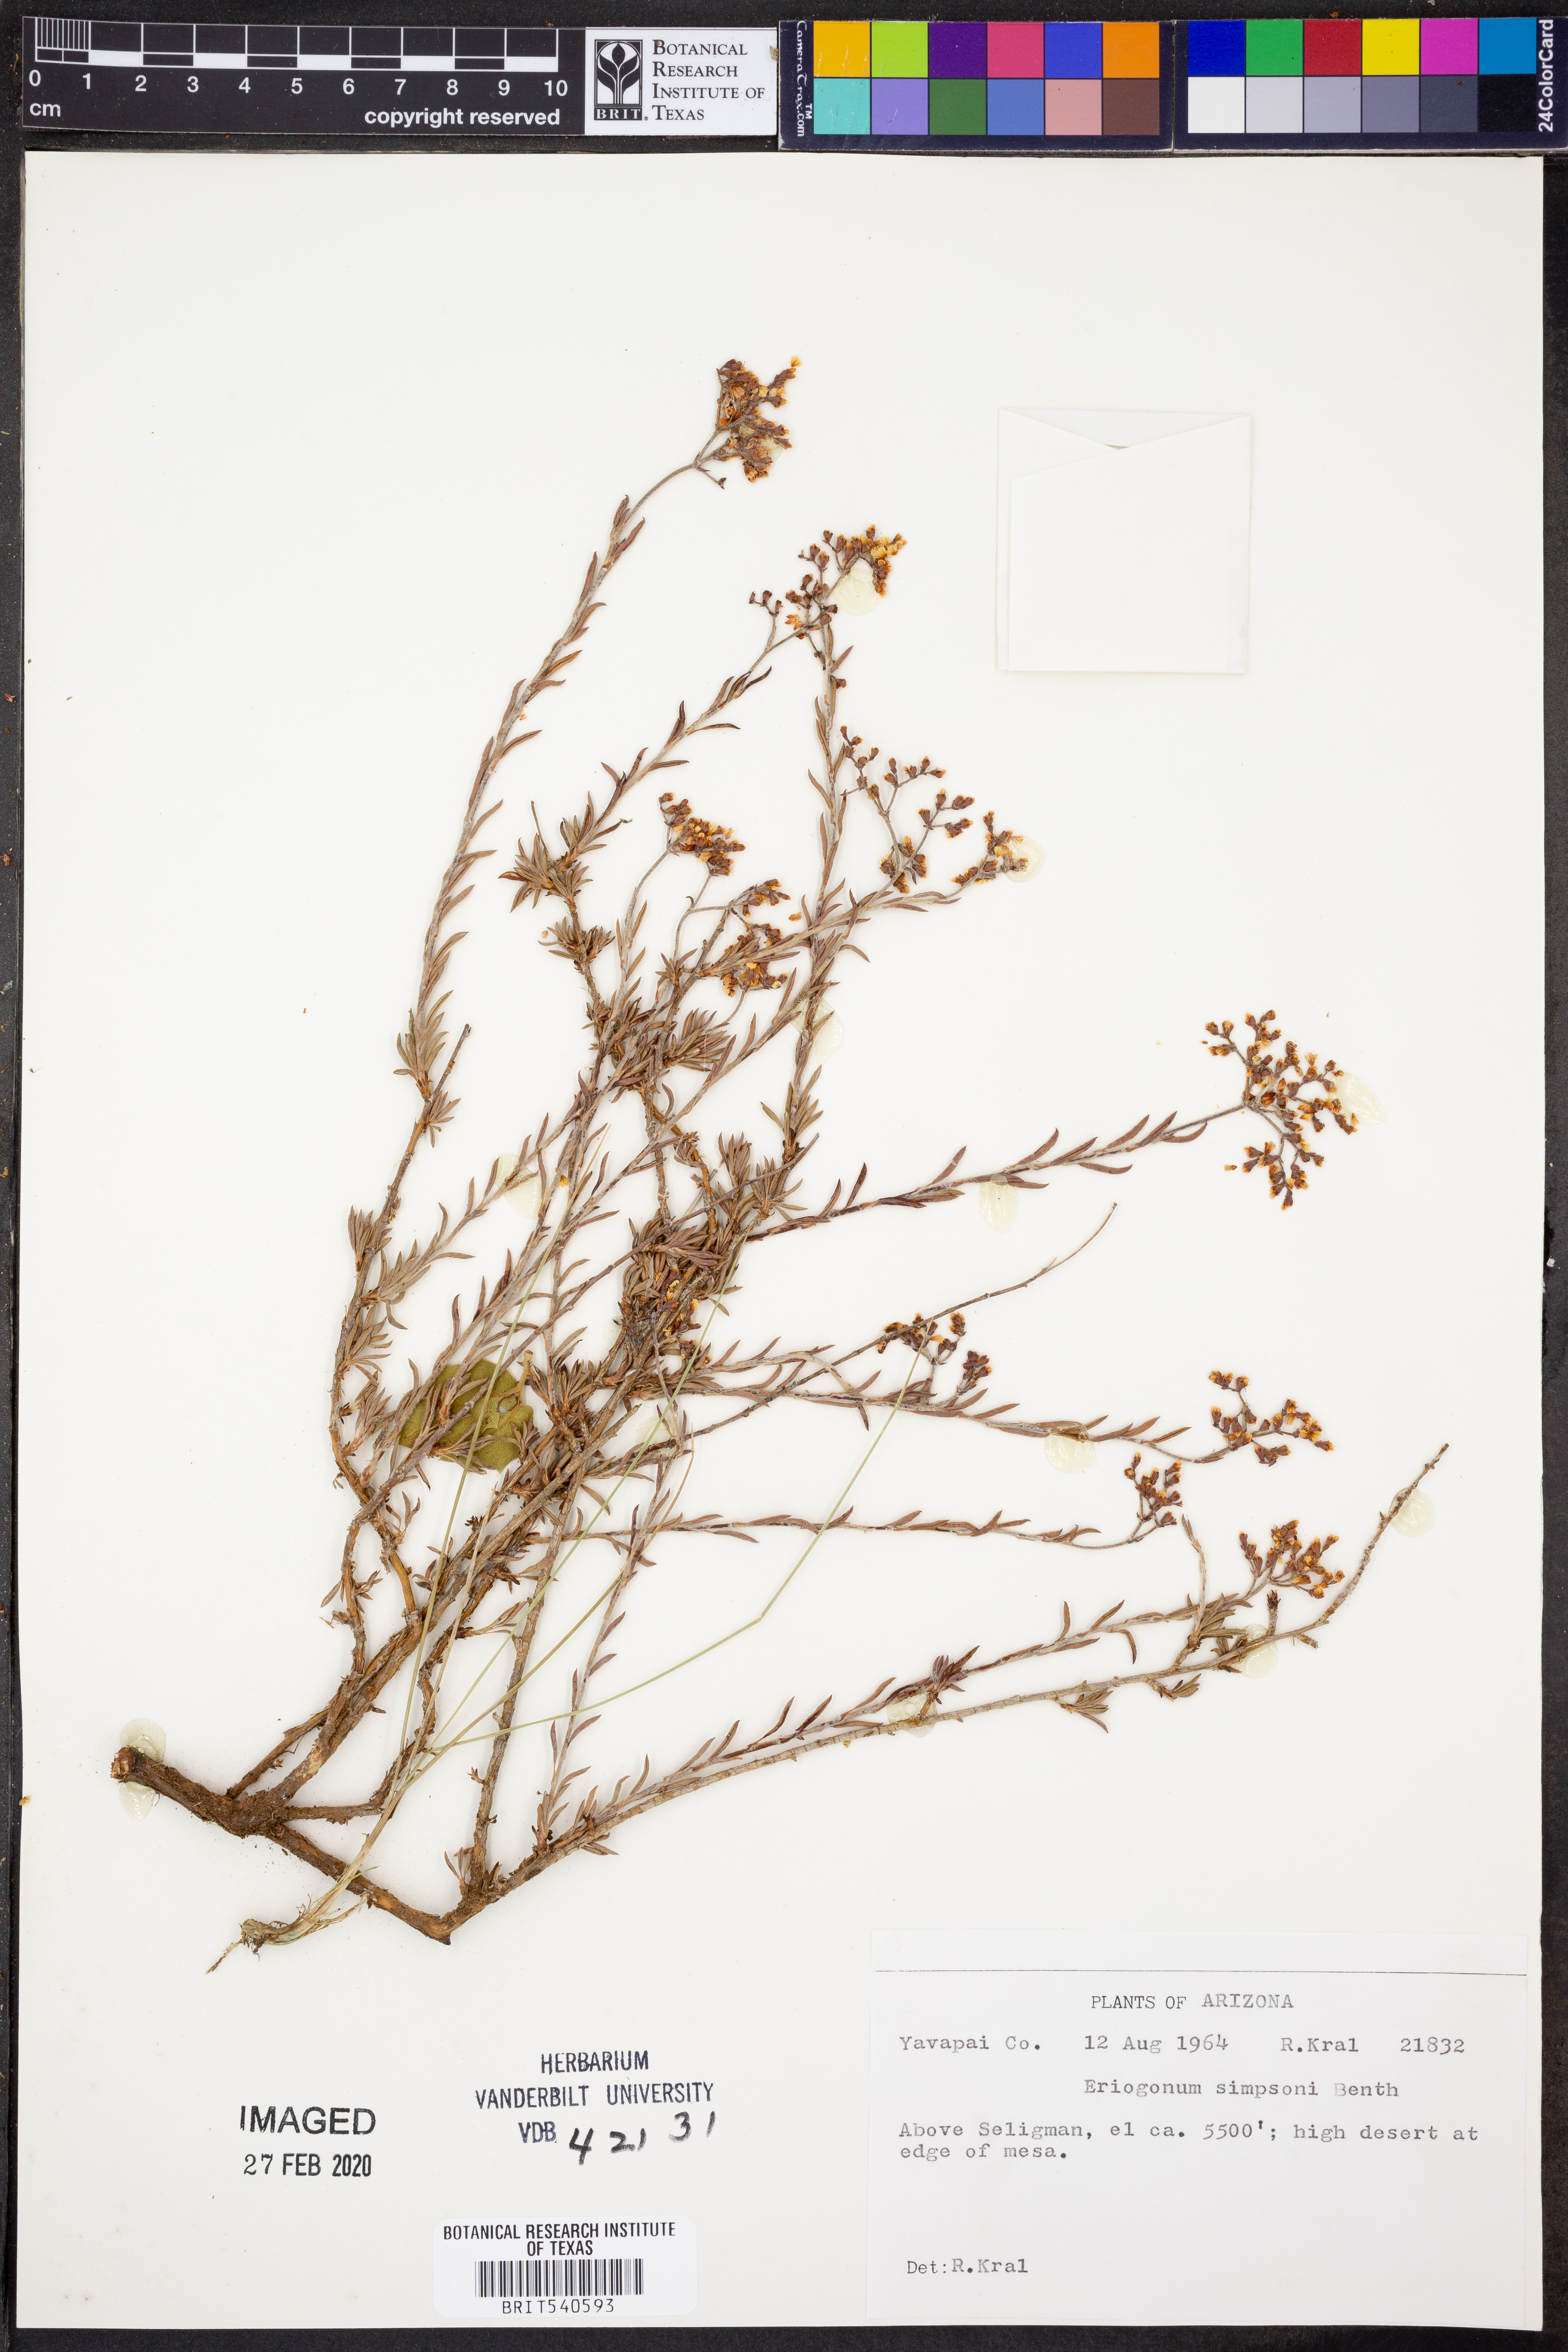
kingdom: Plantae
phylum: Tracheophyta
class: Magnoliopsida
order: Caryophyllales
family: Polygonaceae
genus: Eriogonum
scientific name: Eriogonum microtheca
